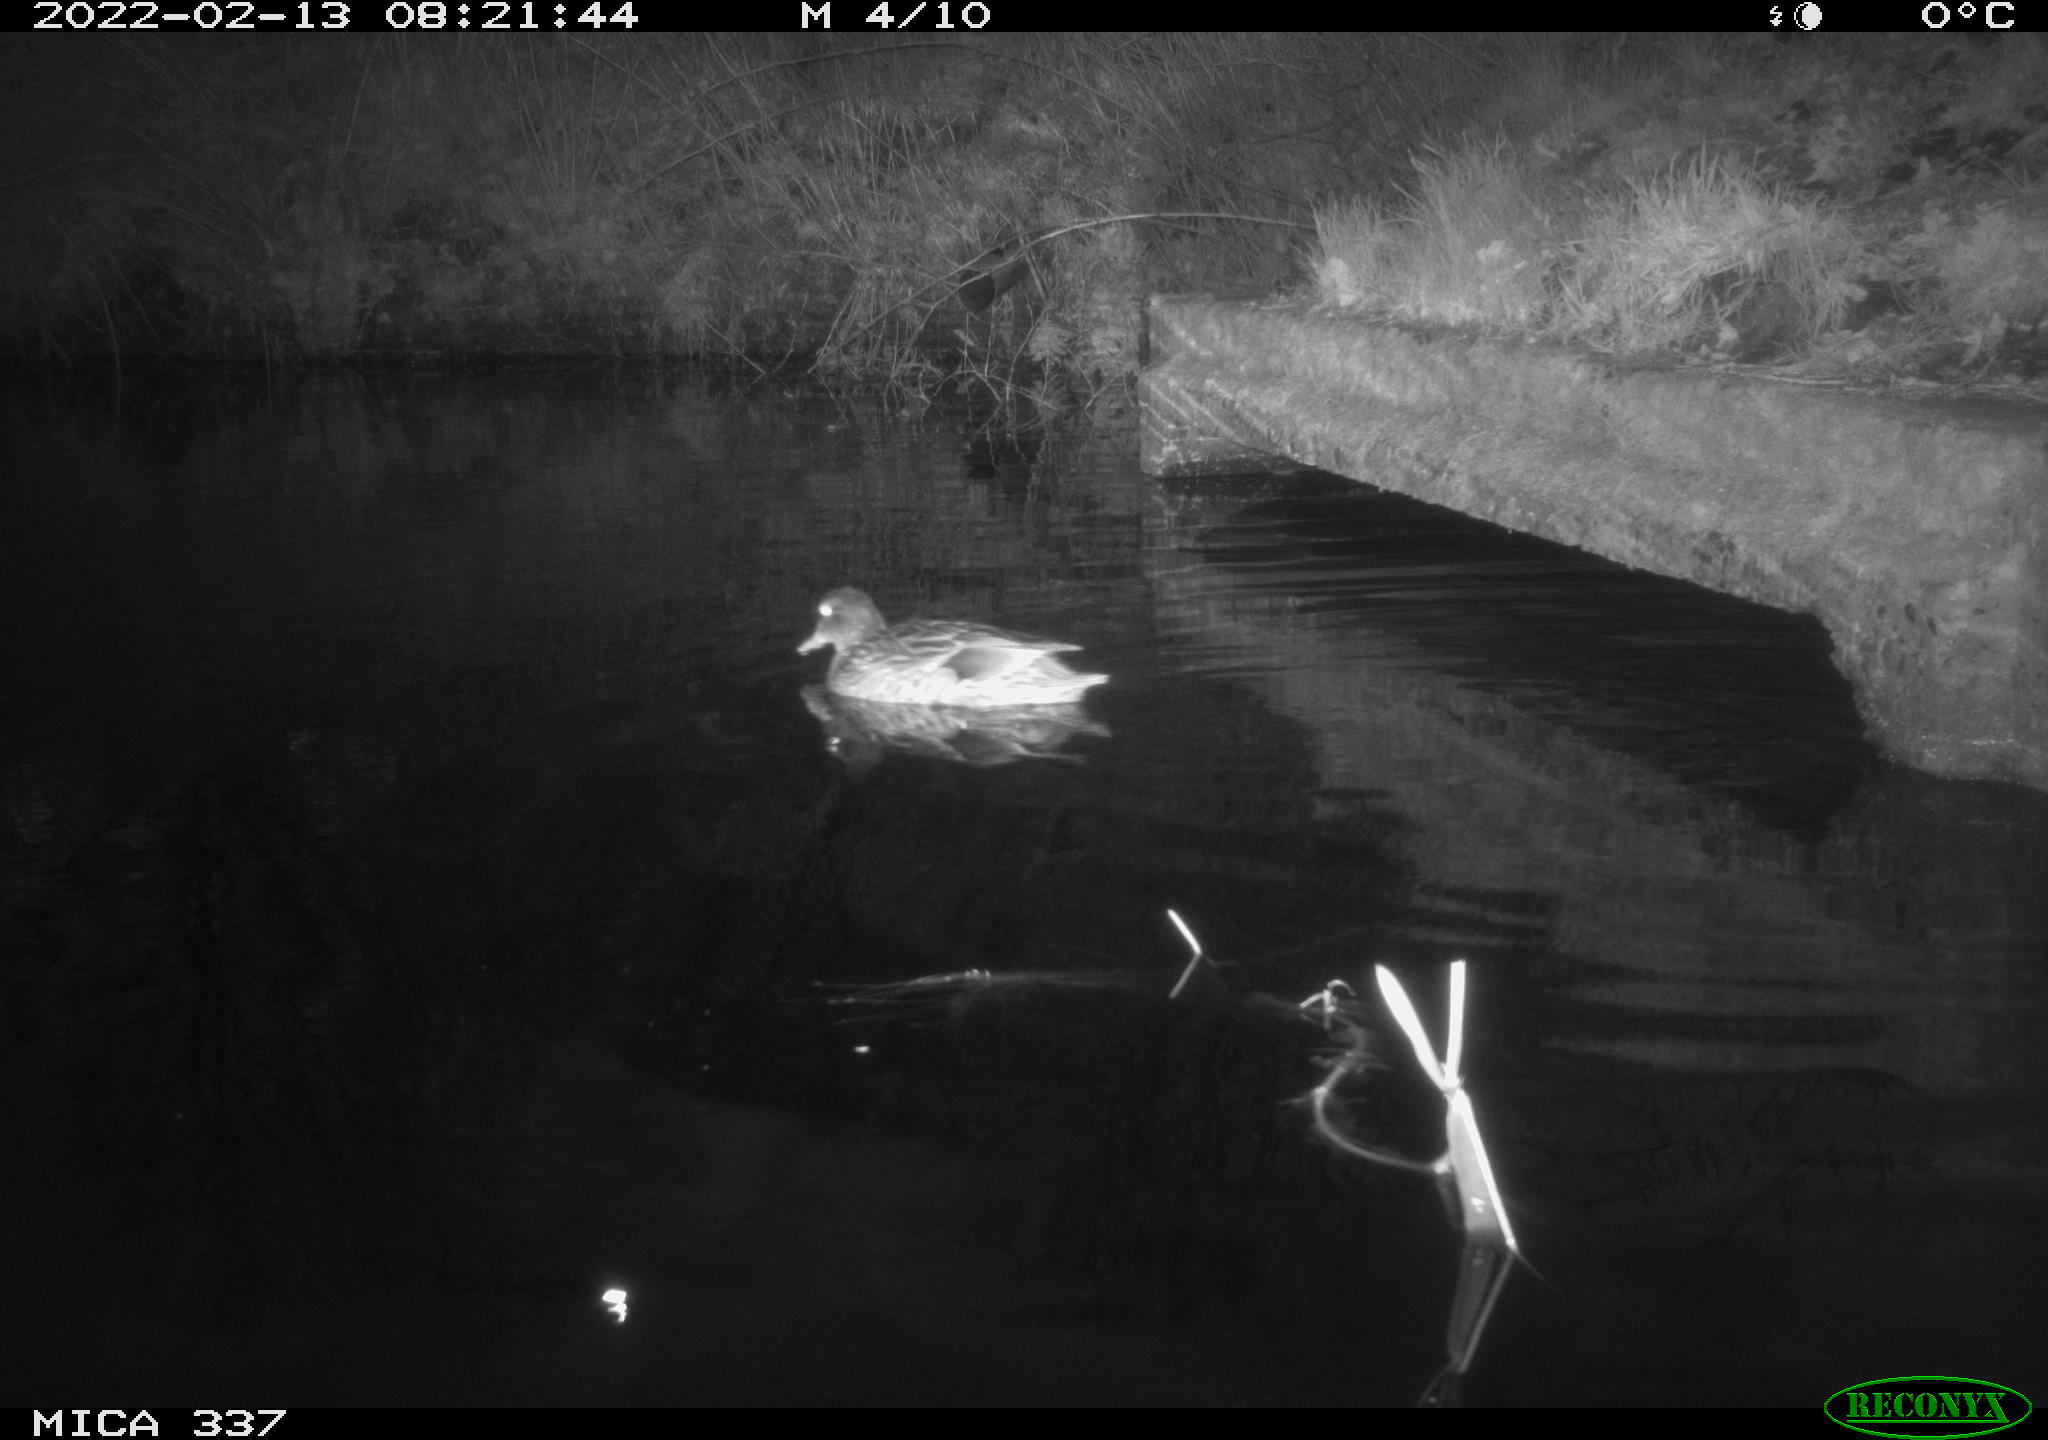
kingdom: Animalia
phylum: Chordata
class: Aves
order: Anseriformes
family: Anatidae
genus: Anas
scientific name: Anas platyrhynchos
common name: Mallard
